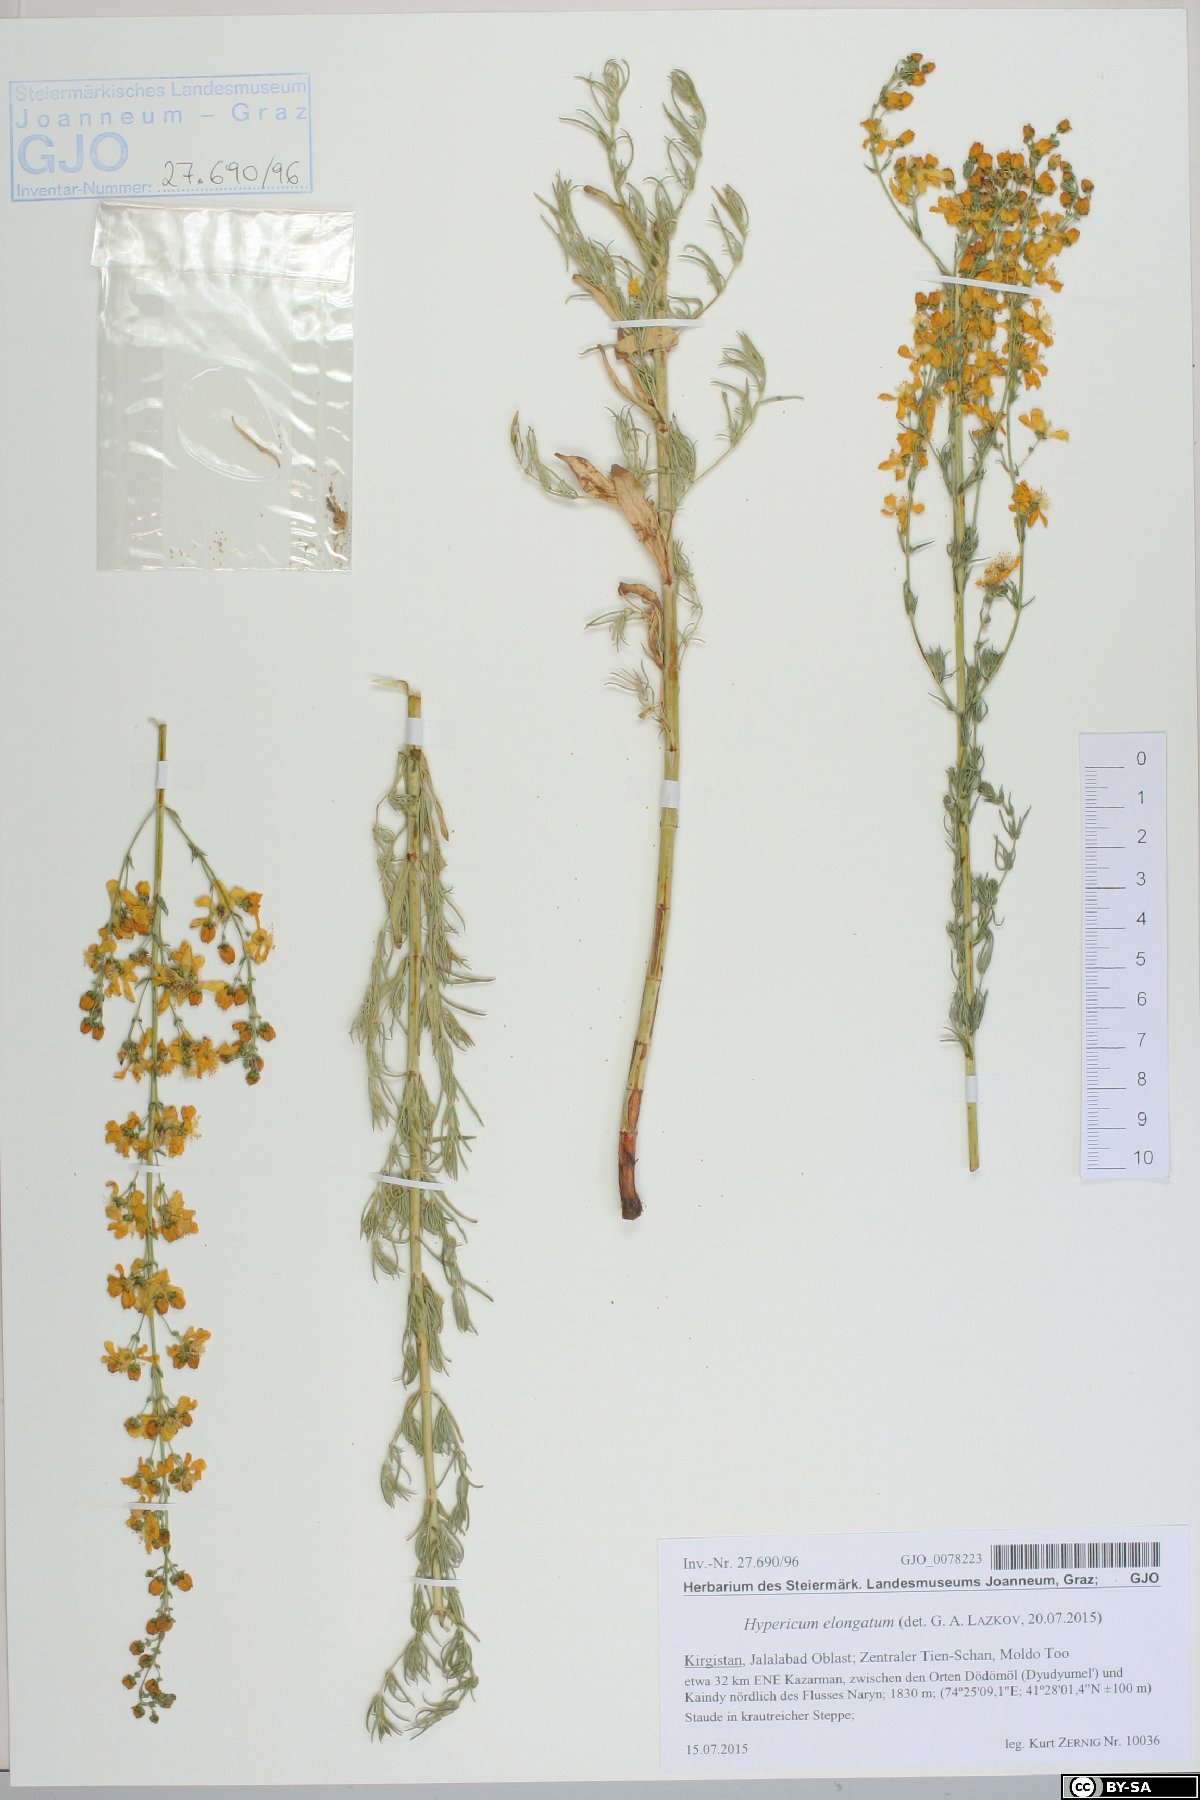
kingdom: Plantae
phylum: Tracheophyta
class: Magnoliopsida
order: Malpighiales
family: Hypericaceae
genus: Hypericum
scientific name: Hypericum elongatum
